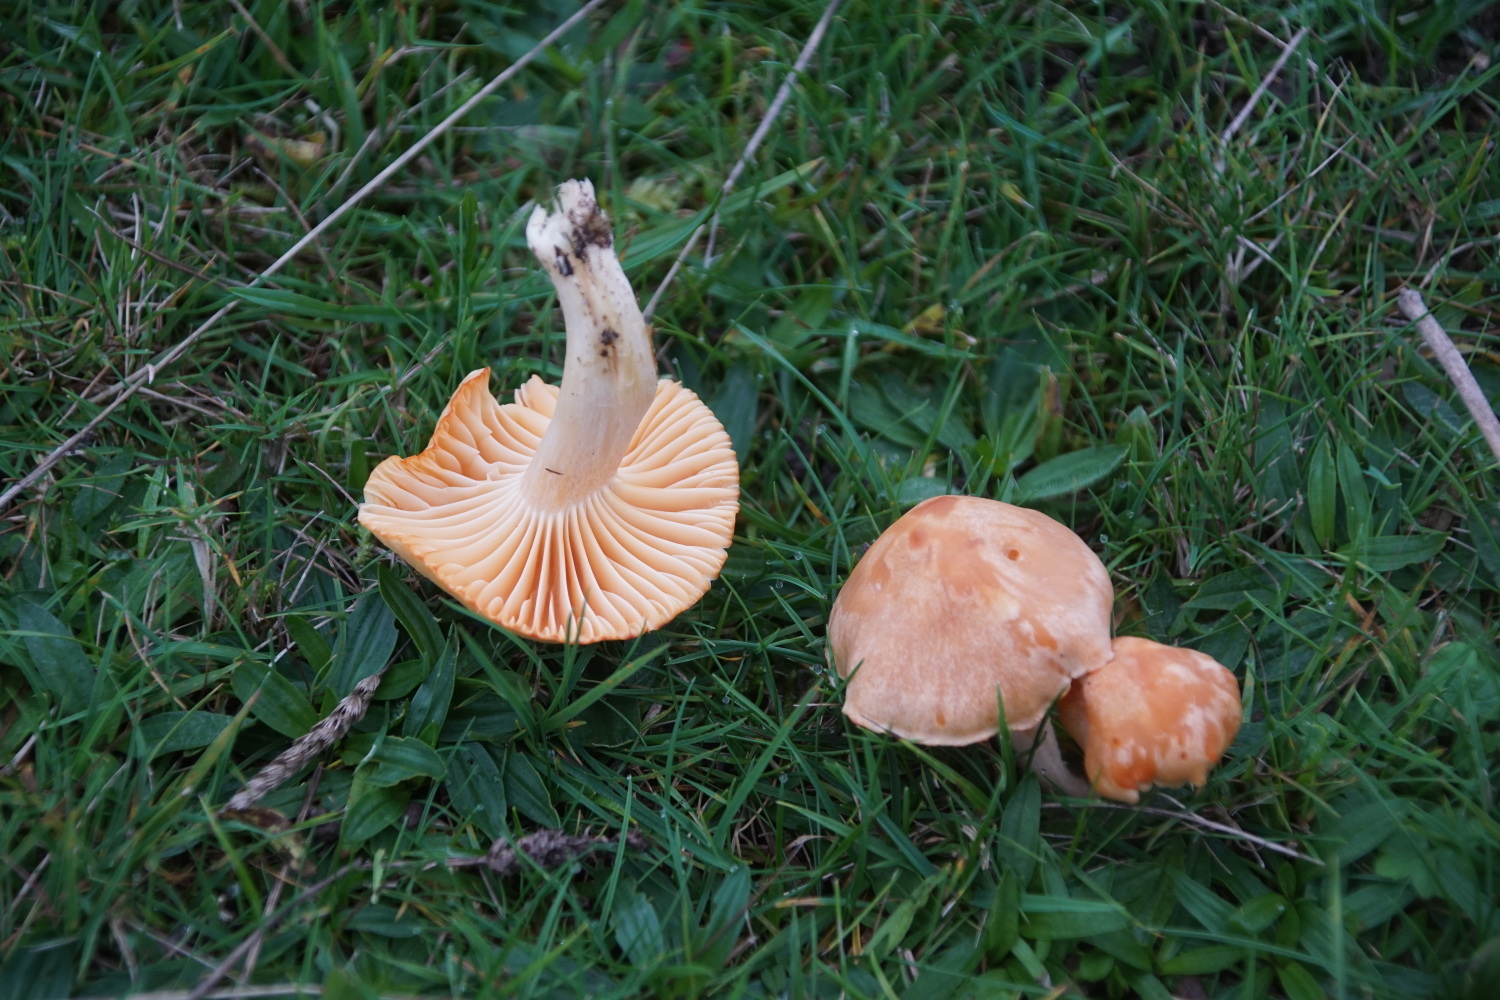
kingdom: Fungi
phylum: Basidiomycota
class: Agaricomycetes
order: Agaricales
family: Hygrophoraceae
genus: Cuphophyllus
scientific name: Cuphophyllus pratensis
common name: eng-vokshat
